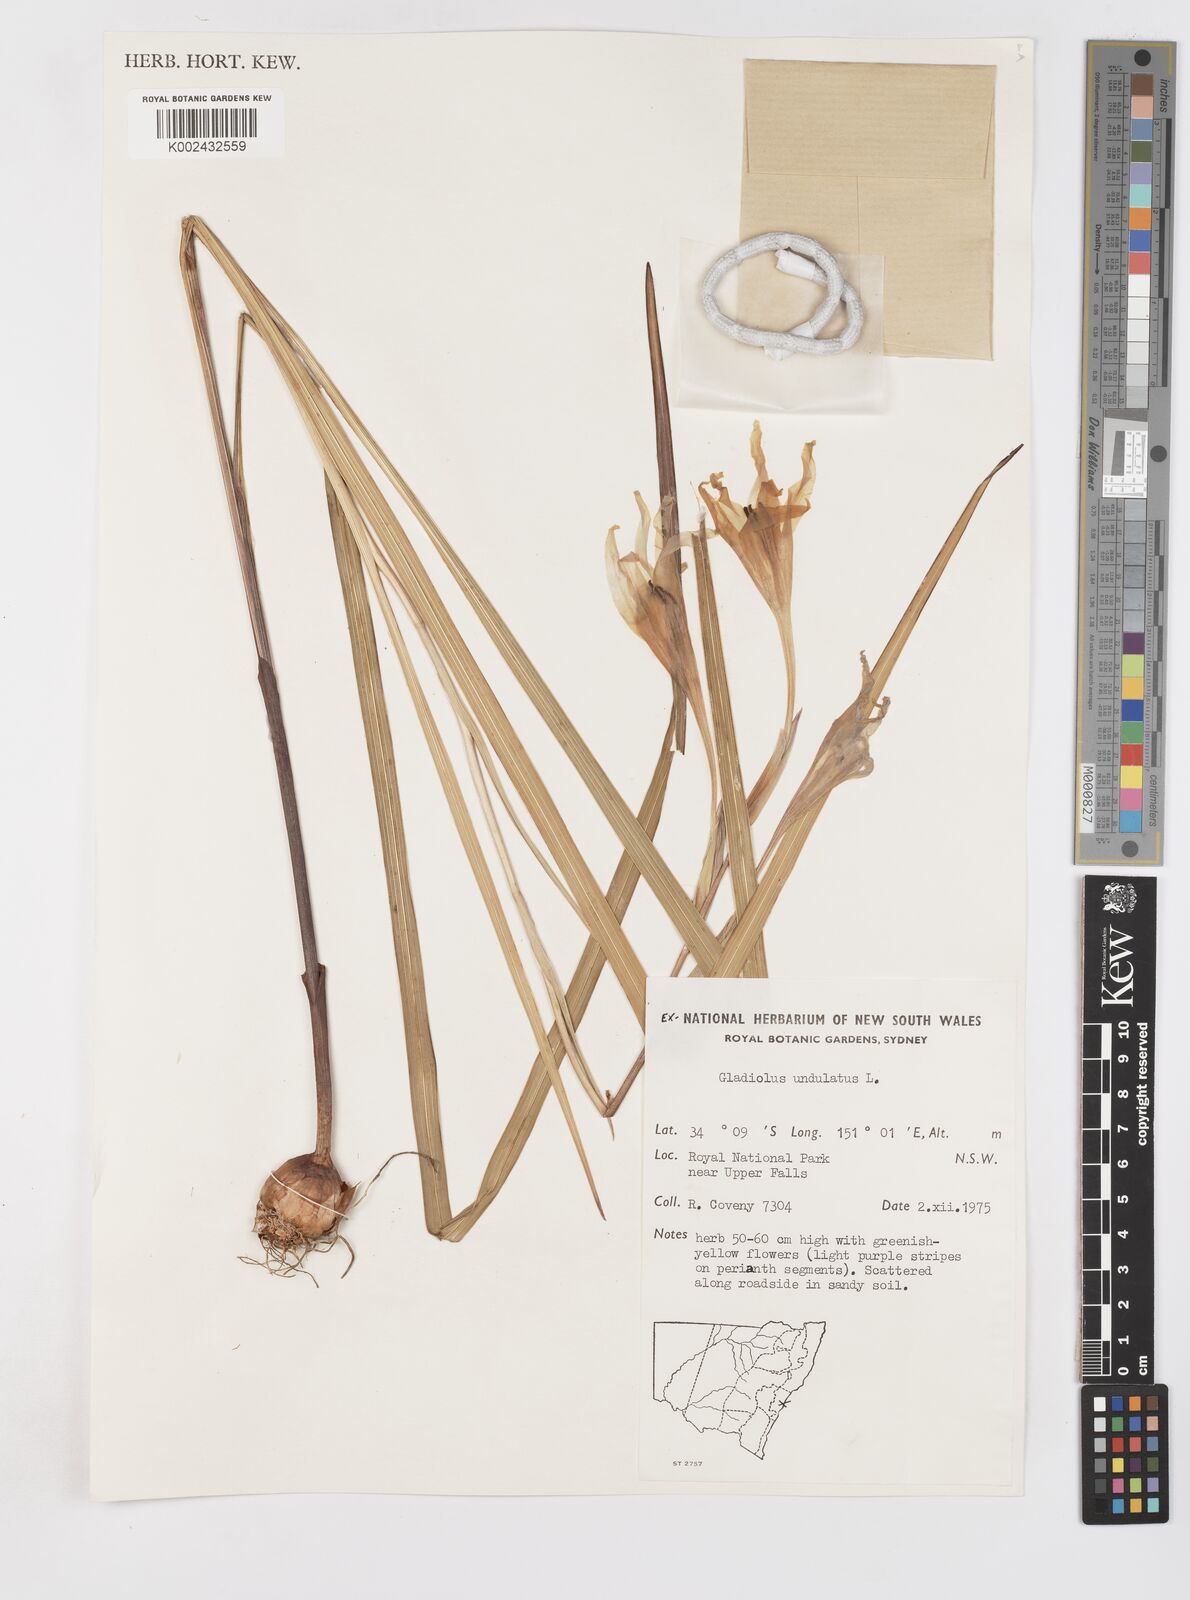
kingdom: Plantae
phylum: Tracheophyta
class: Liliopsida
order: Asparagales
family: Iridaceae
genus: Gladiolus
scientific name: Gladiolus undulatus
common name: Large painted-lady
